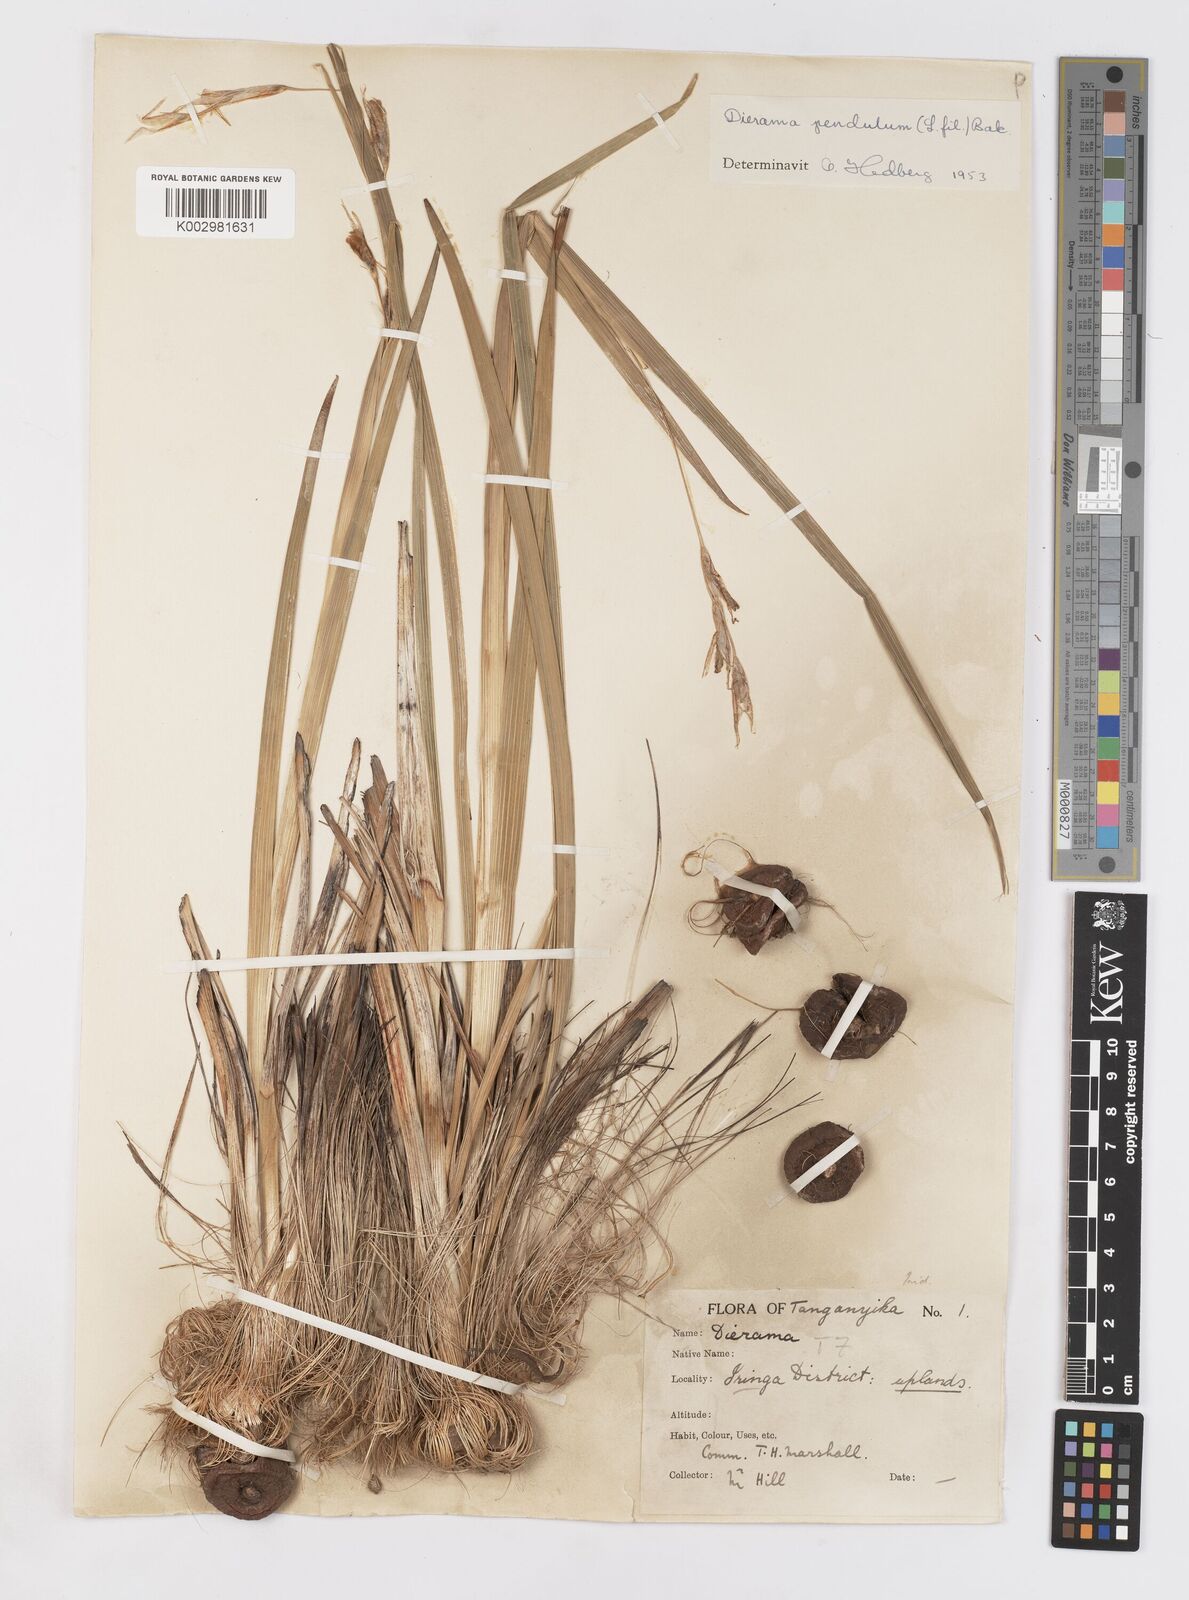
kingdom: Plantae
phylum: Tracheophyta
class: Liliopsida
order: Asparagales
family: Iridaceae
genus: Dierama
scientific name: Dierama cupuliflorum
